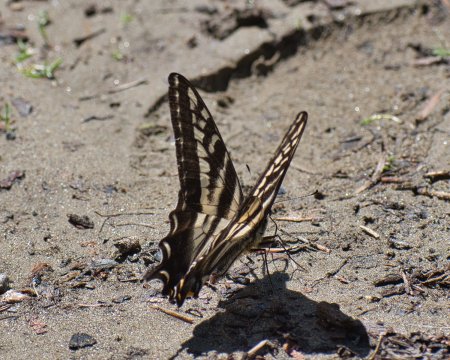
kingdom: Animalia
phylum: Arthropoda
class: Insecta
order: Lepidoptera
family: Papilionidae
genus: Pterourus
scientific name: Pterourus eurymedon
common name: Pale Swallowtail
